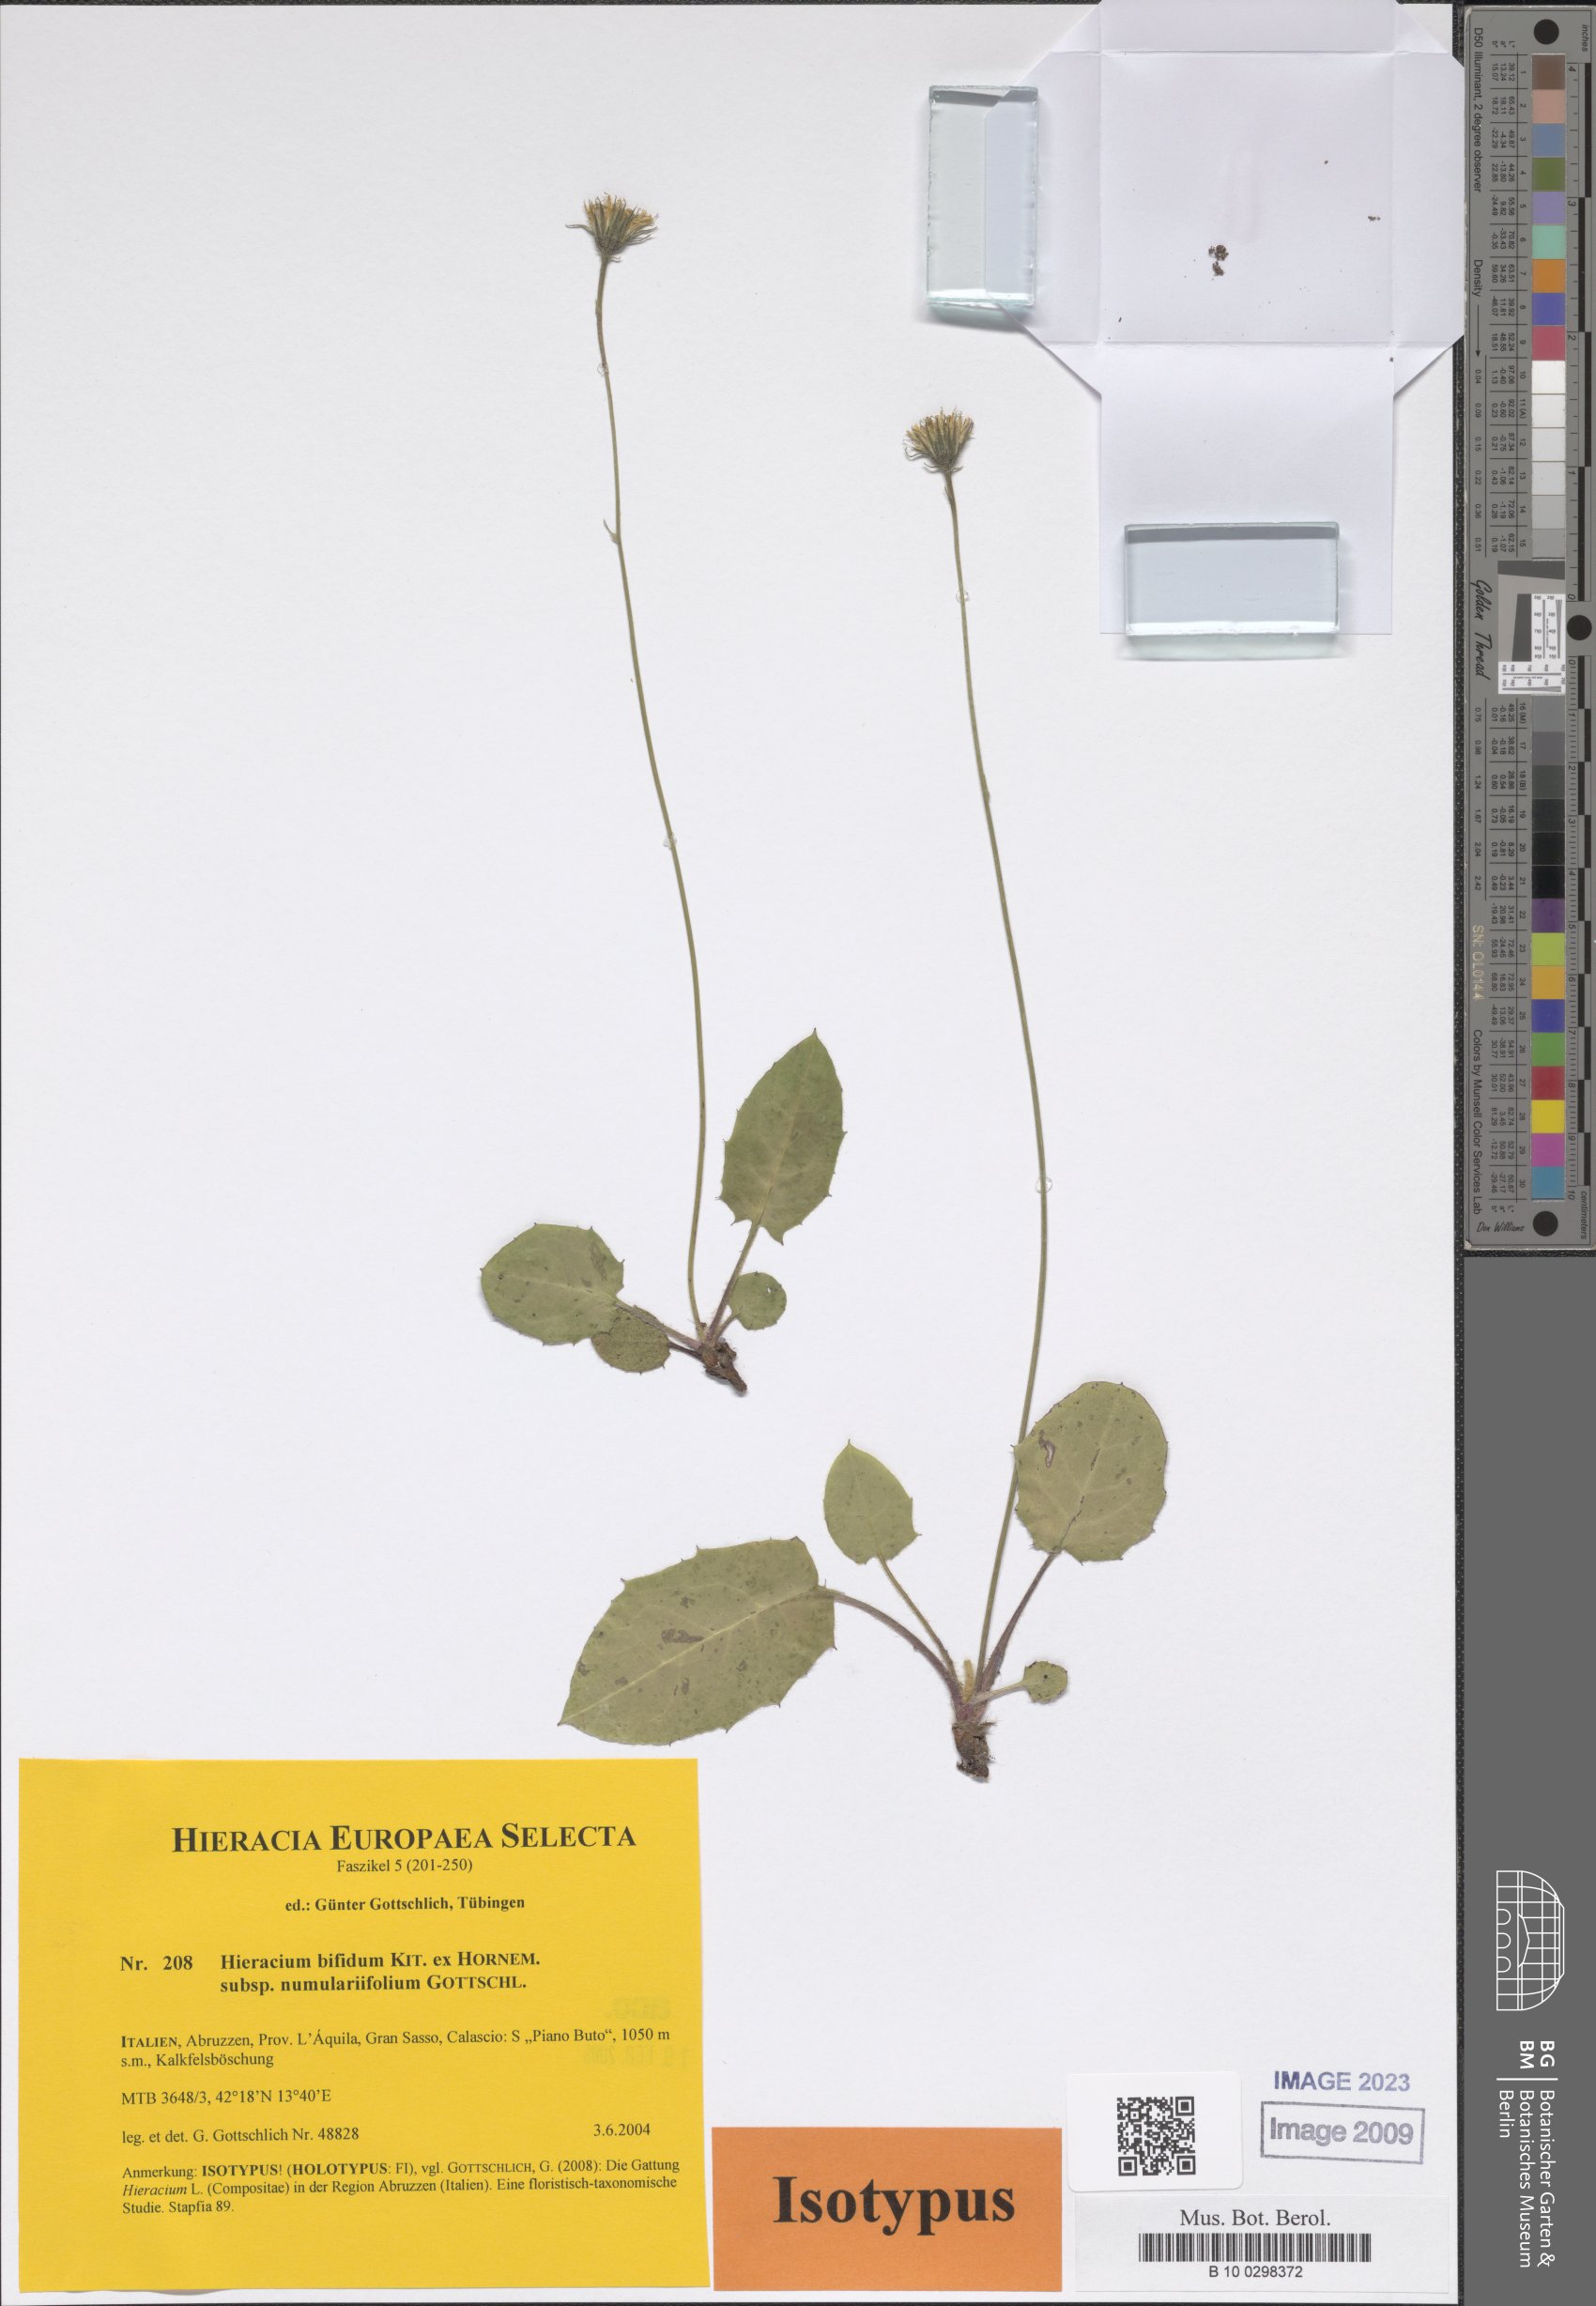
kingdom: Plantae
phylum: Tracheophyta
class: Magnoliopsida
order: Asterales
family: Asteraceae
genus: Hieracium
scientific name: Hieracium bifidum
